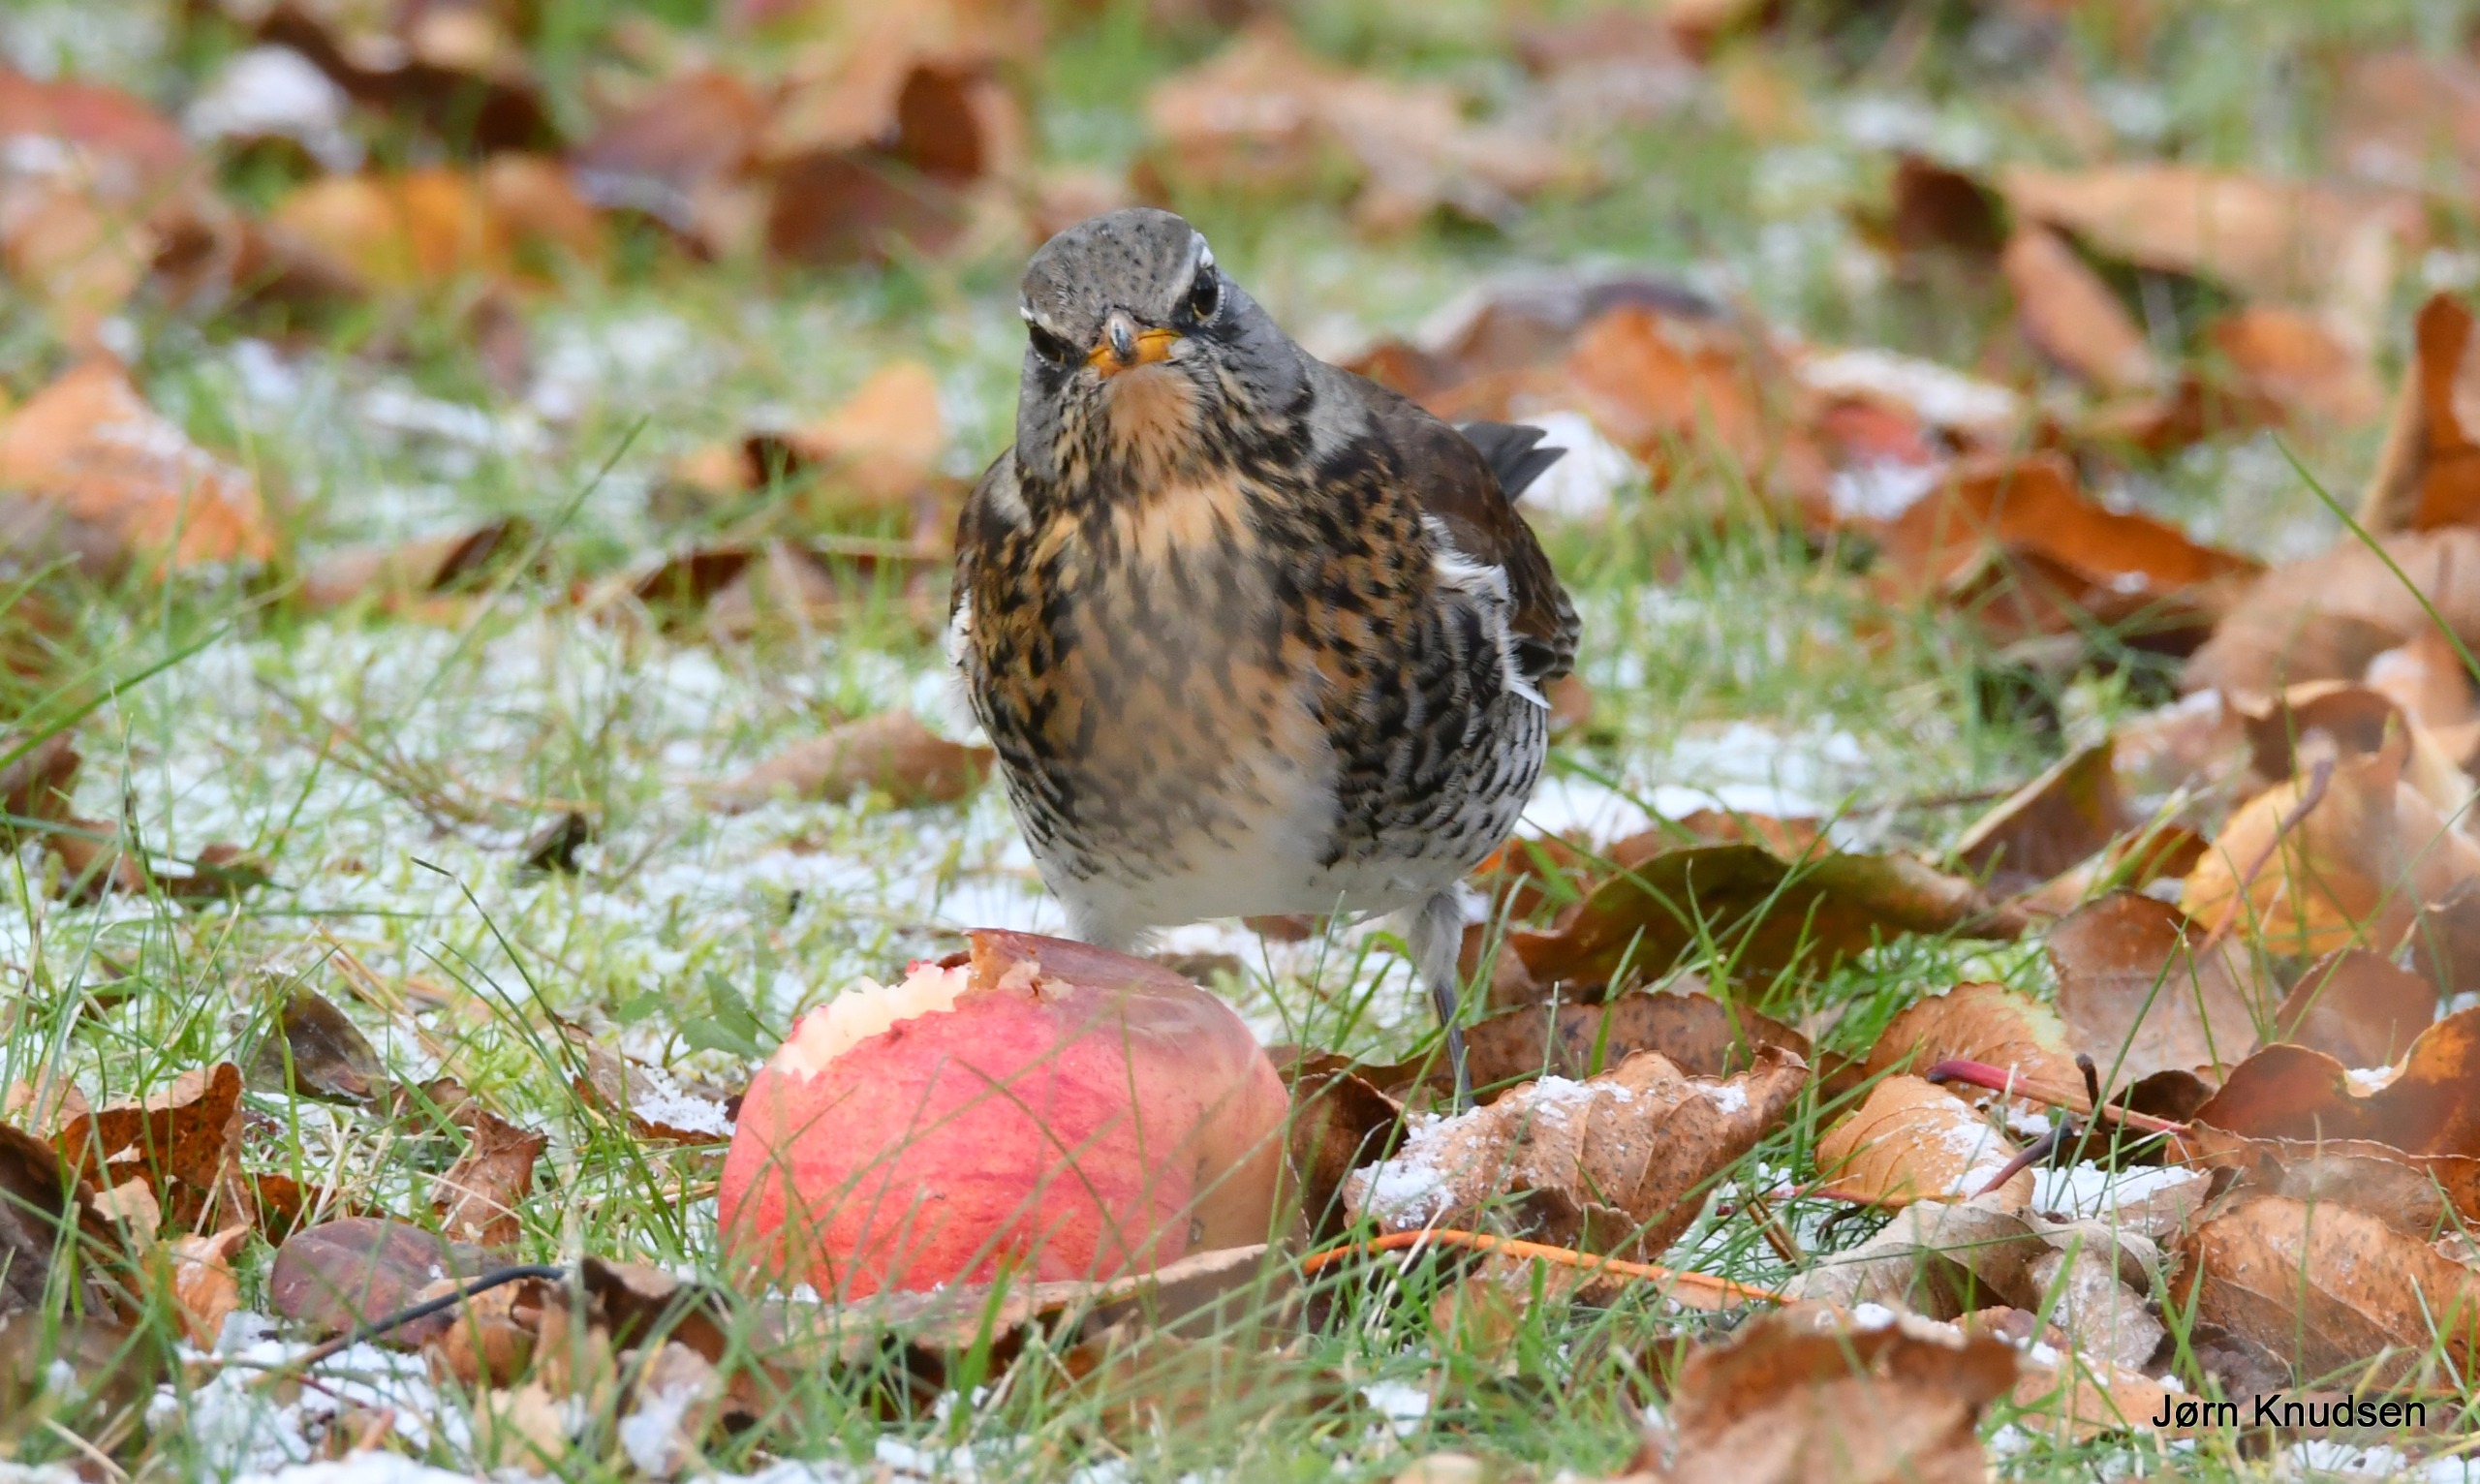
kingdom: Animalia
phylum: Chordata
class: Aves
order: Passeriformes
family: Turdidae
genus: Turdus
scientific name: Turdus pilaris
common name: Sjagger
